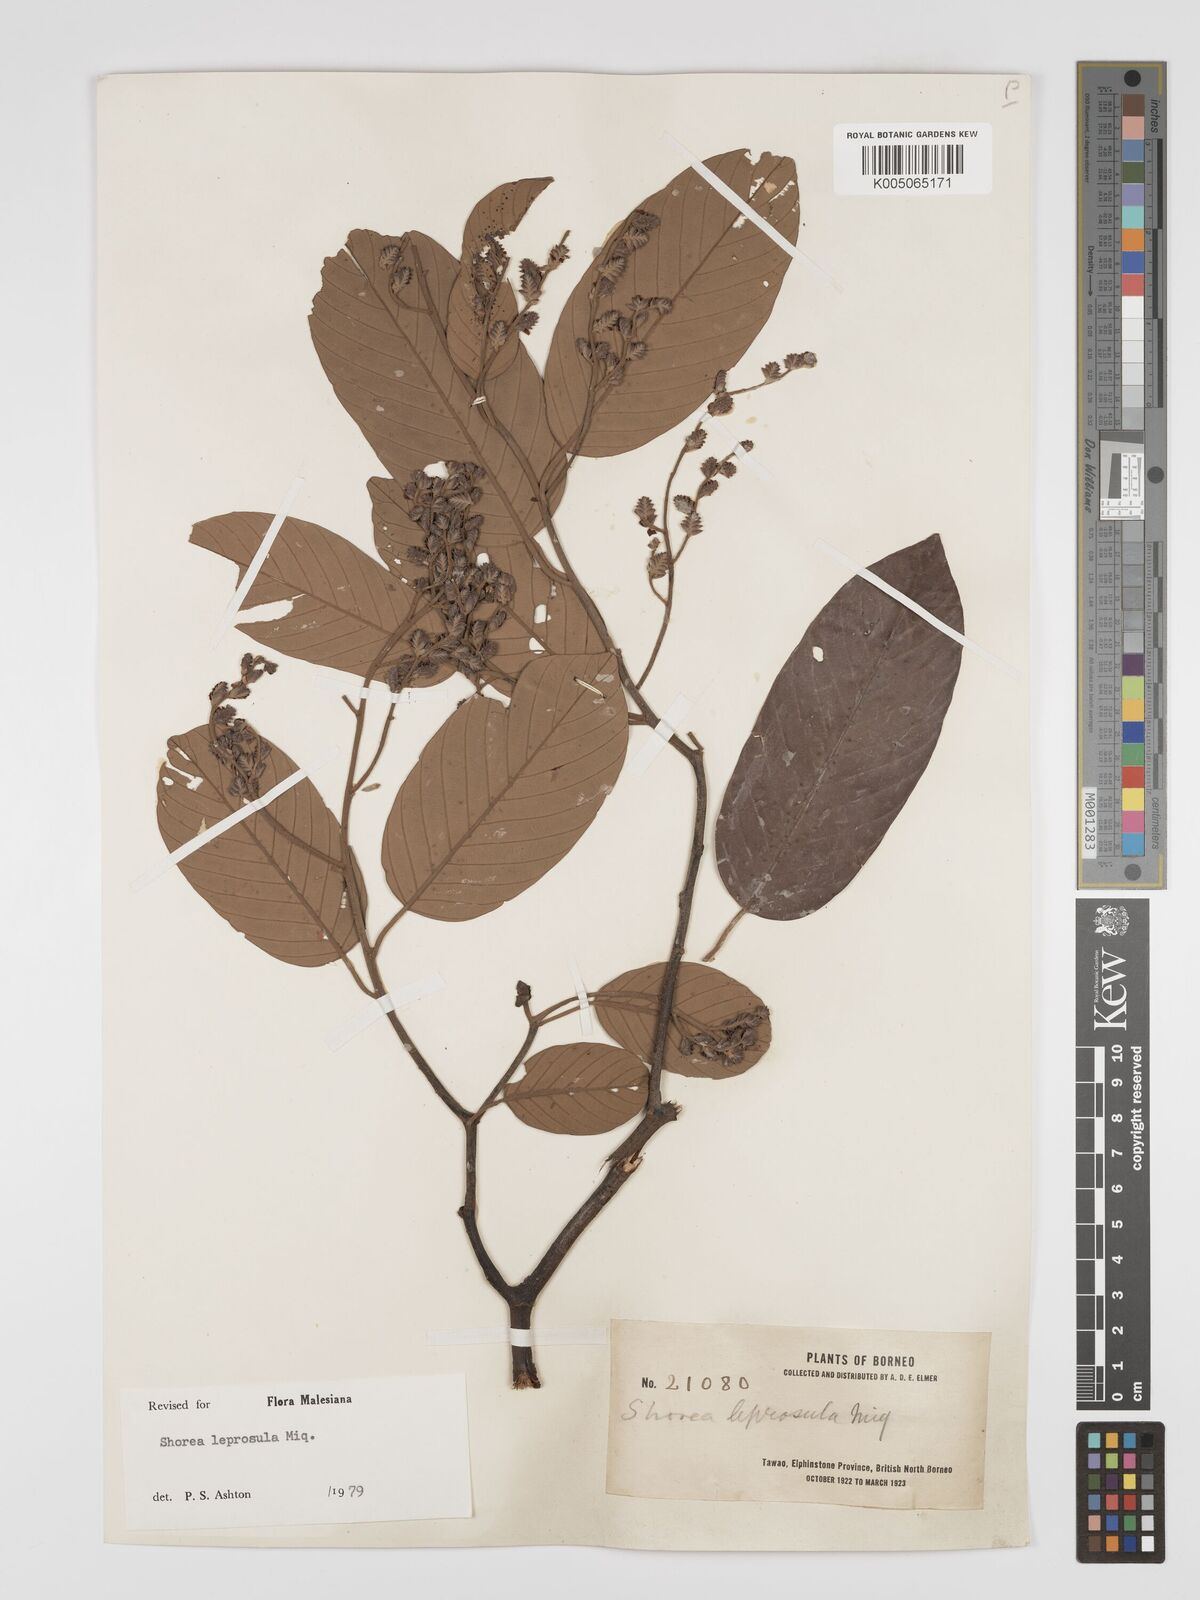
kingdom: Plantae
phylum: Tracheophyta
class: Magnoliopsida
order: Malvales
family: Dipterocarpaceae
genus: Shorea
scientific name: Shorea leprosula
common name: Light red meranti
